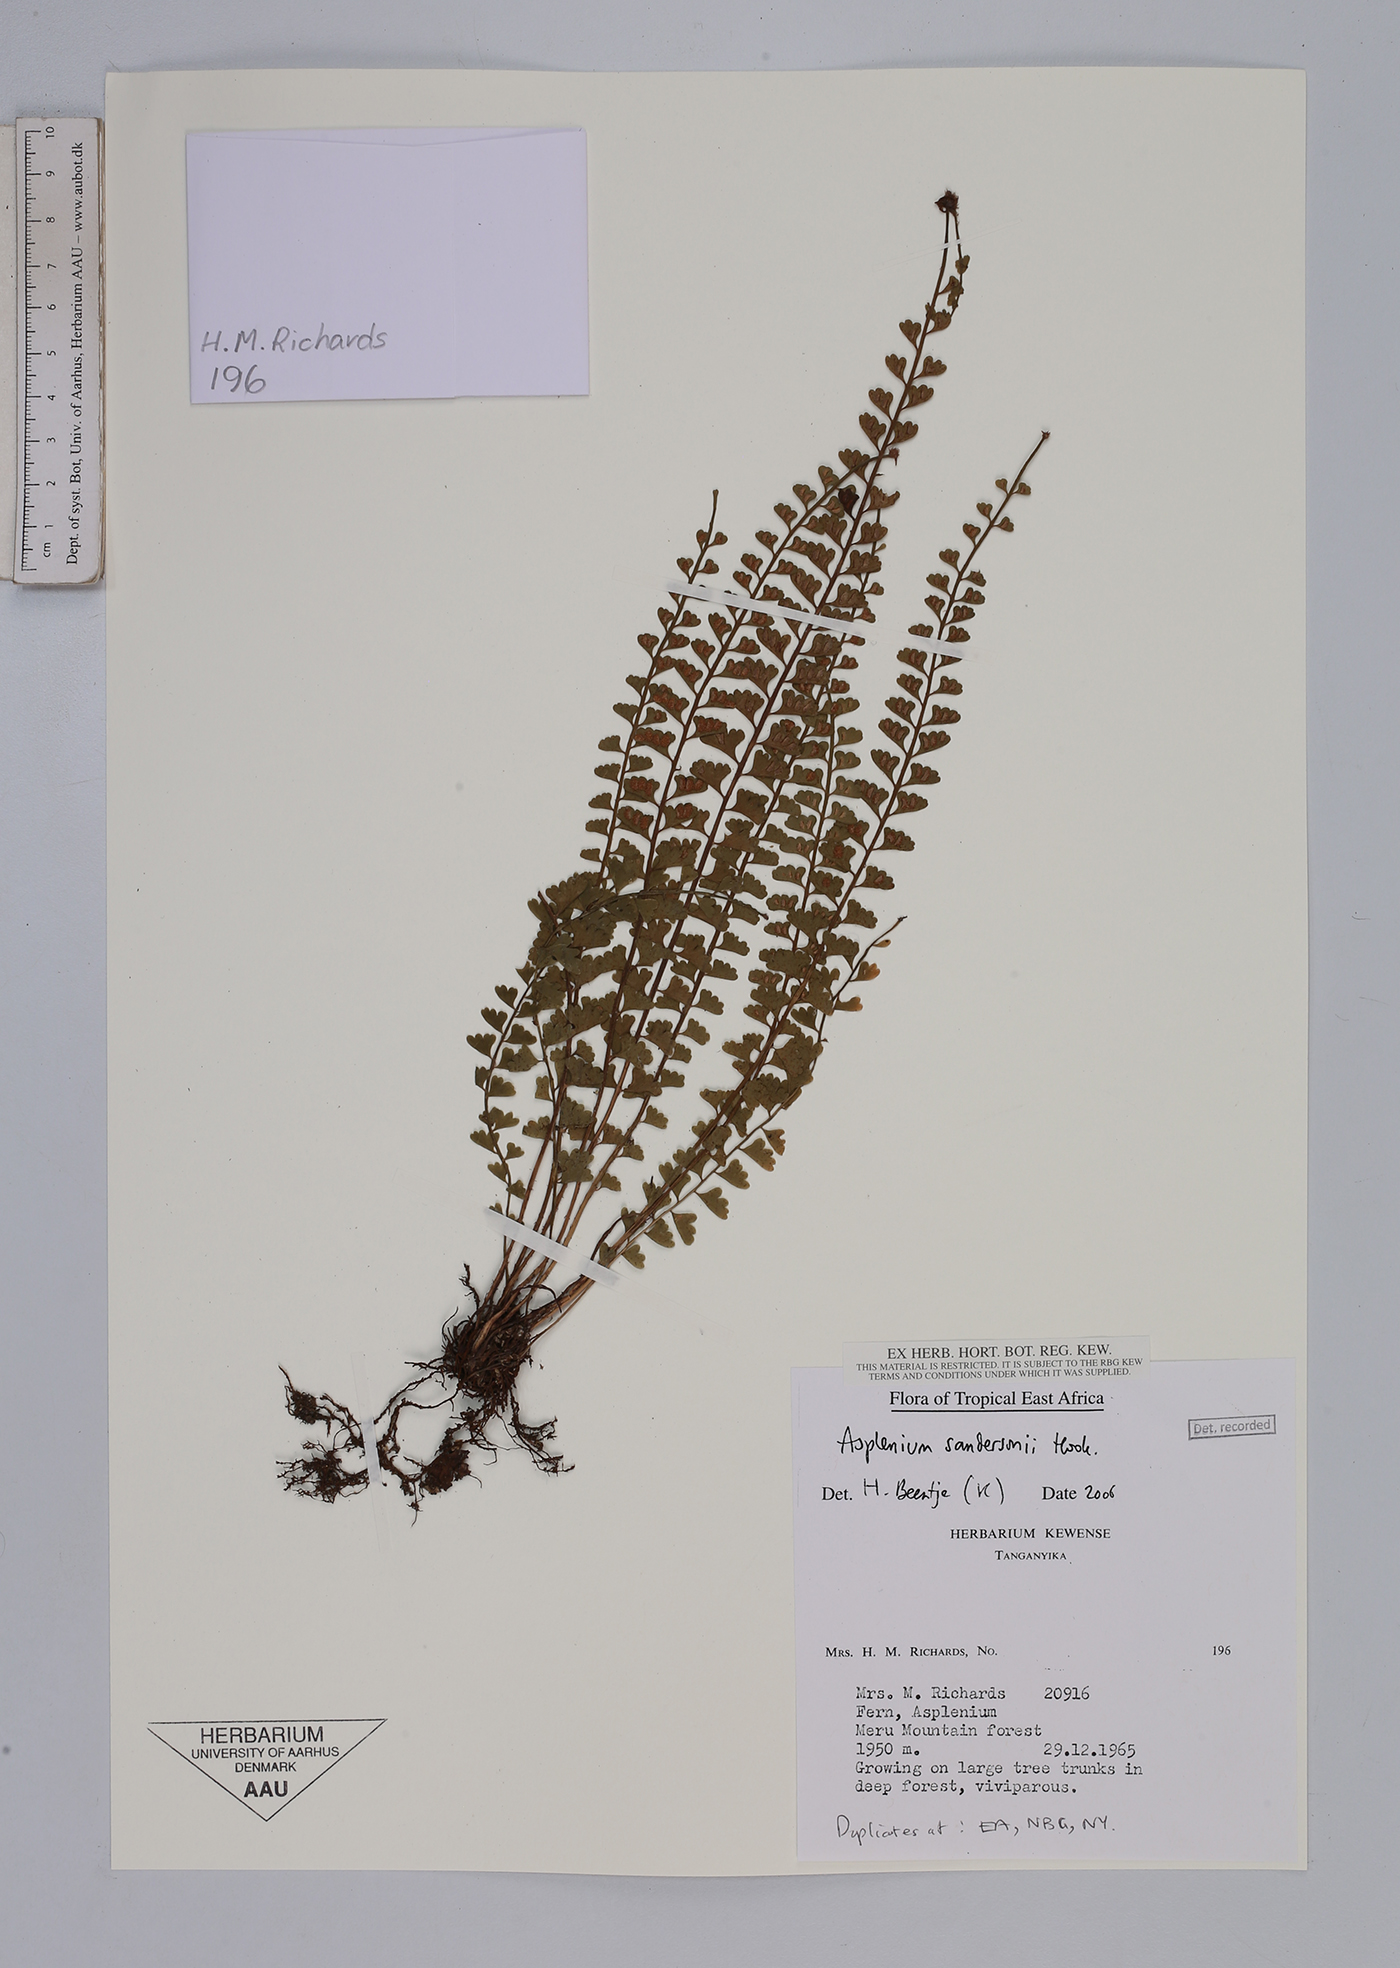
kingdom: Plantae
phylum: Tracheophyta
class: Polypodiopsida
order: Polypodiales
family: Aspleniaceae
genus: Asplenium
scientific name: Asplenium sandersonii
